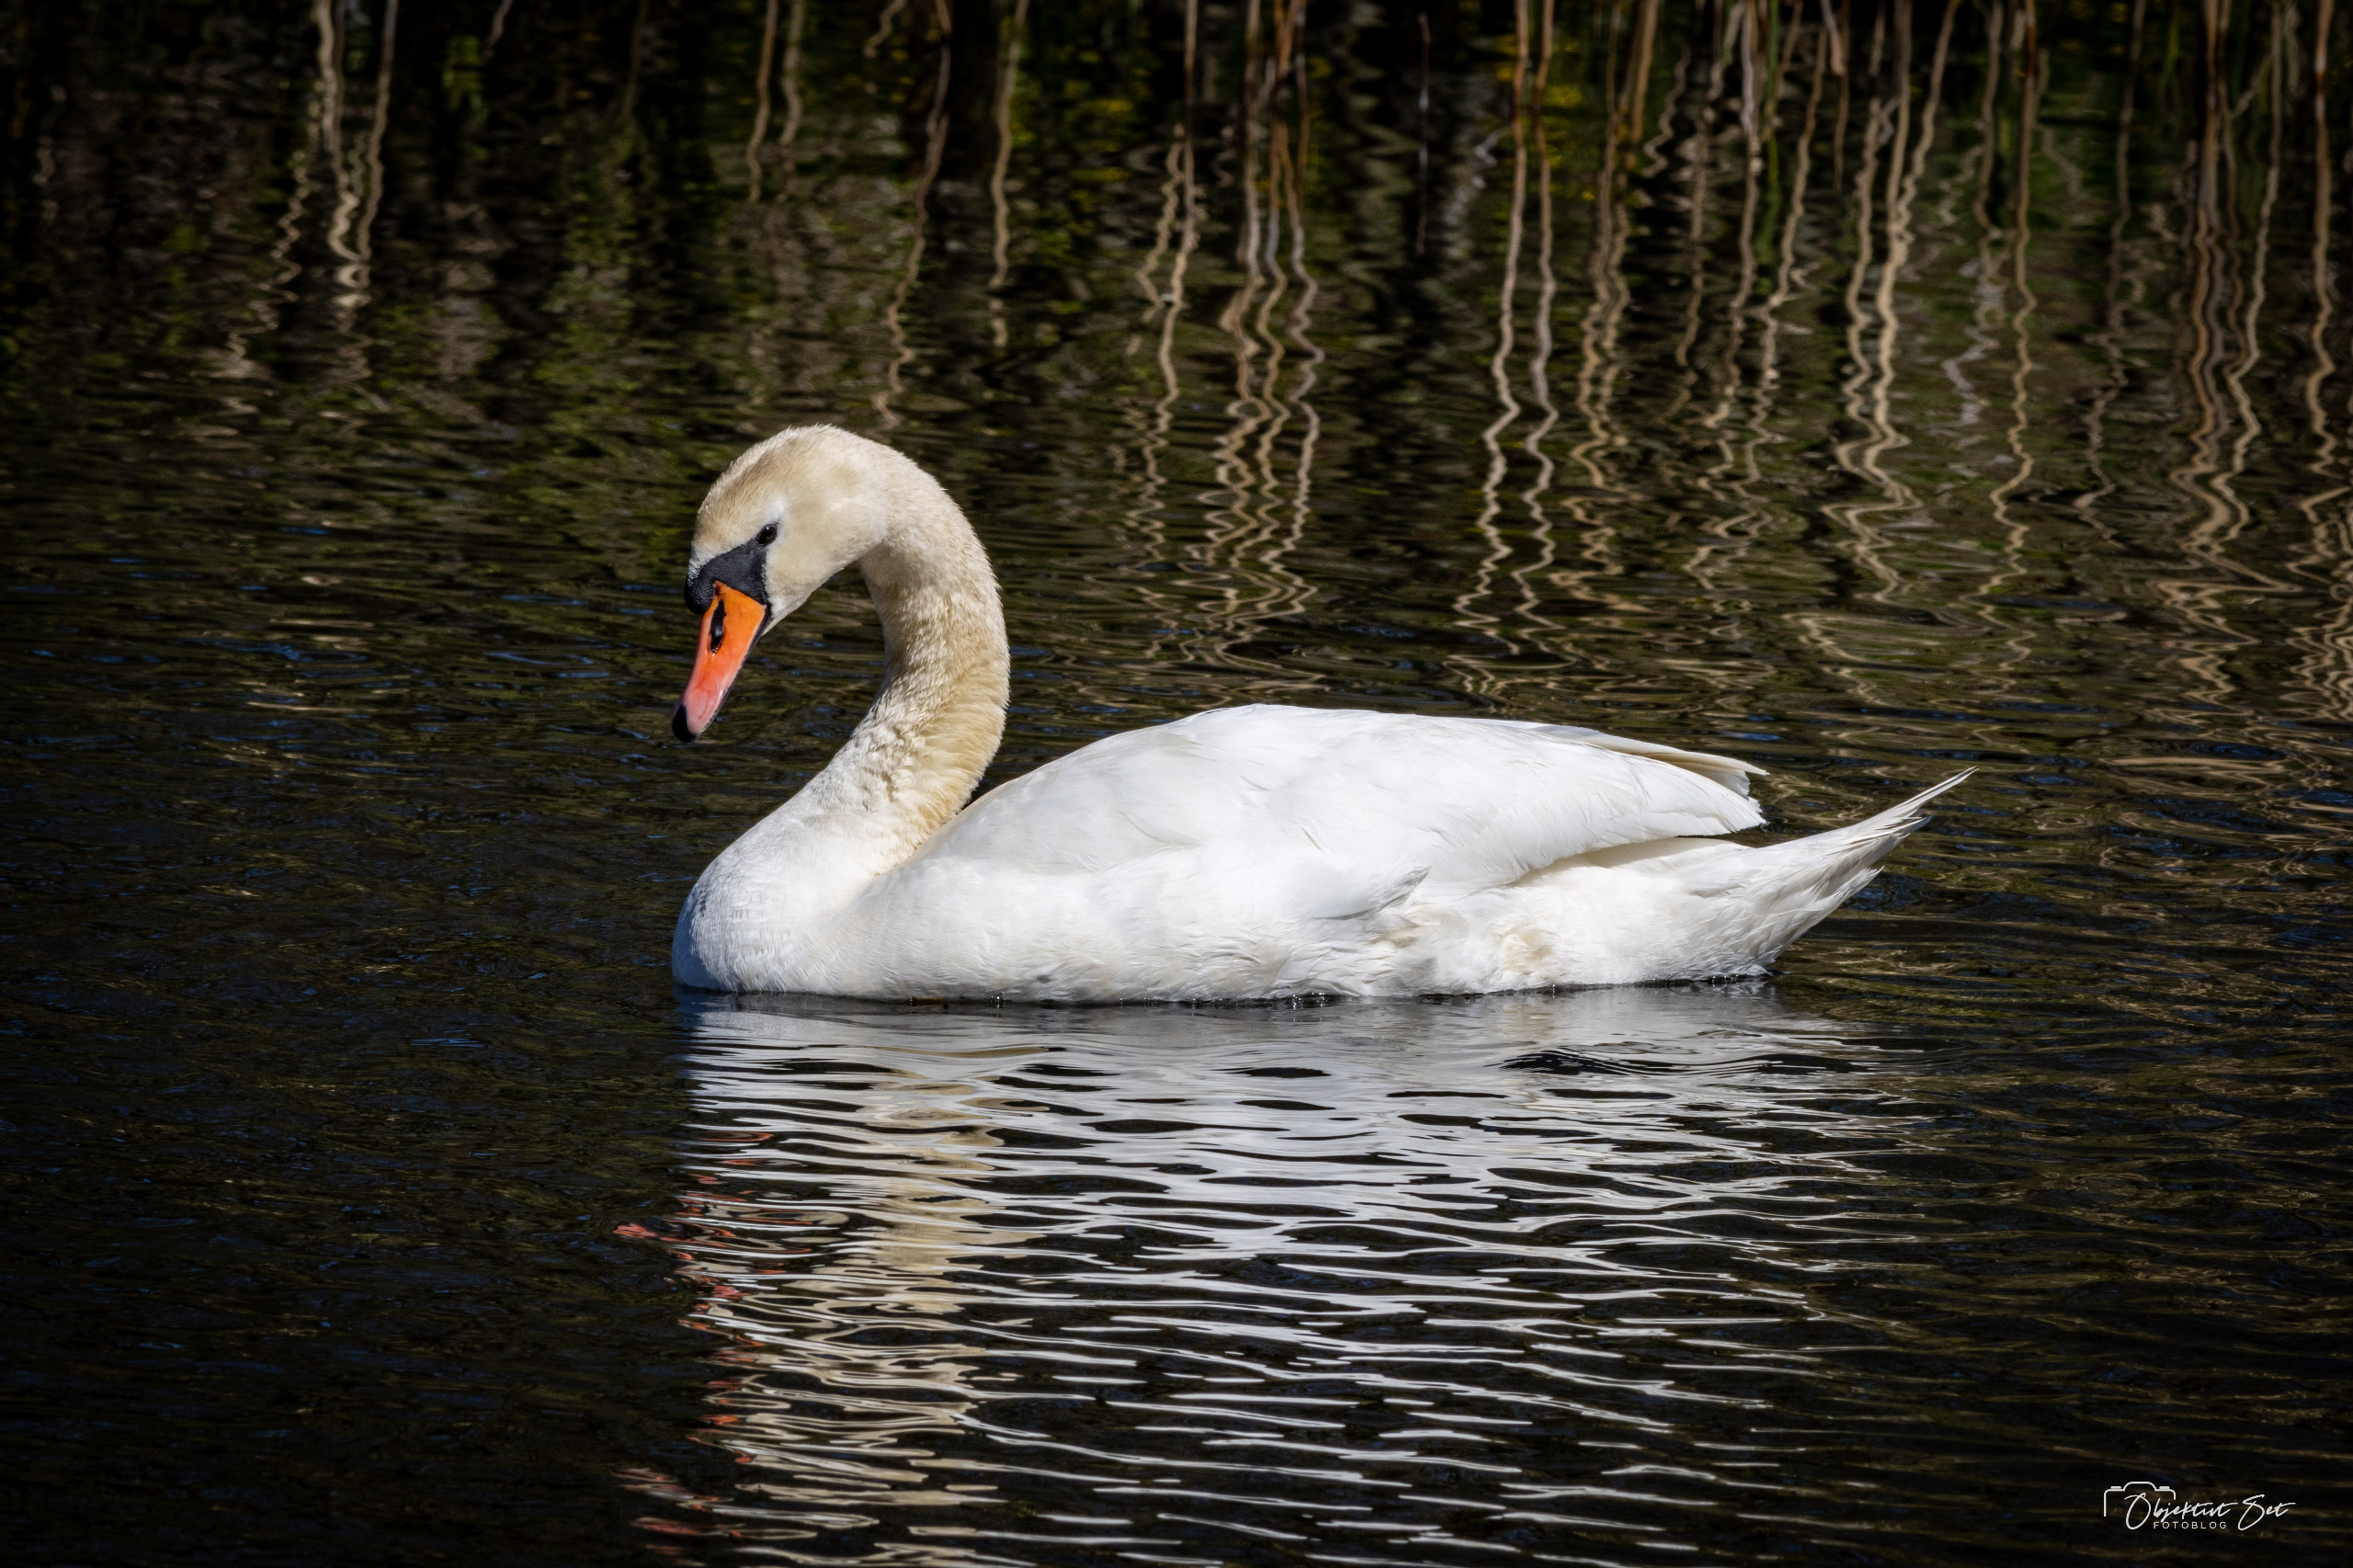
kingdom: Animalia
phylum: Chordata
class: Aves
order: Anseriformes
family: Anatidae
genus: Cygnus
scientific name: Cygnus olor
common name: Knopsvane
